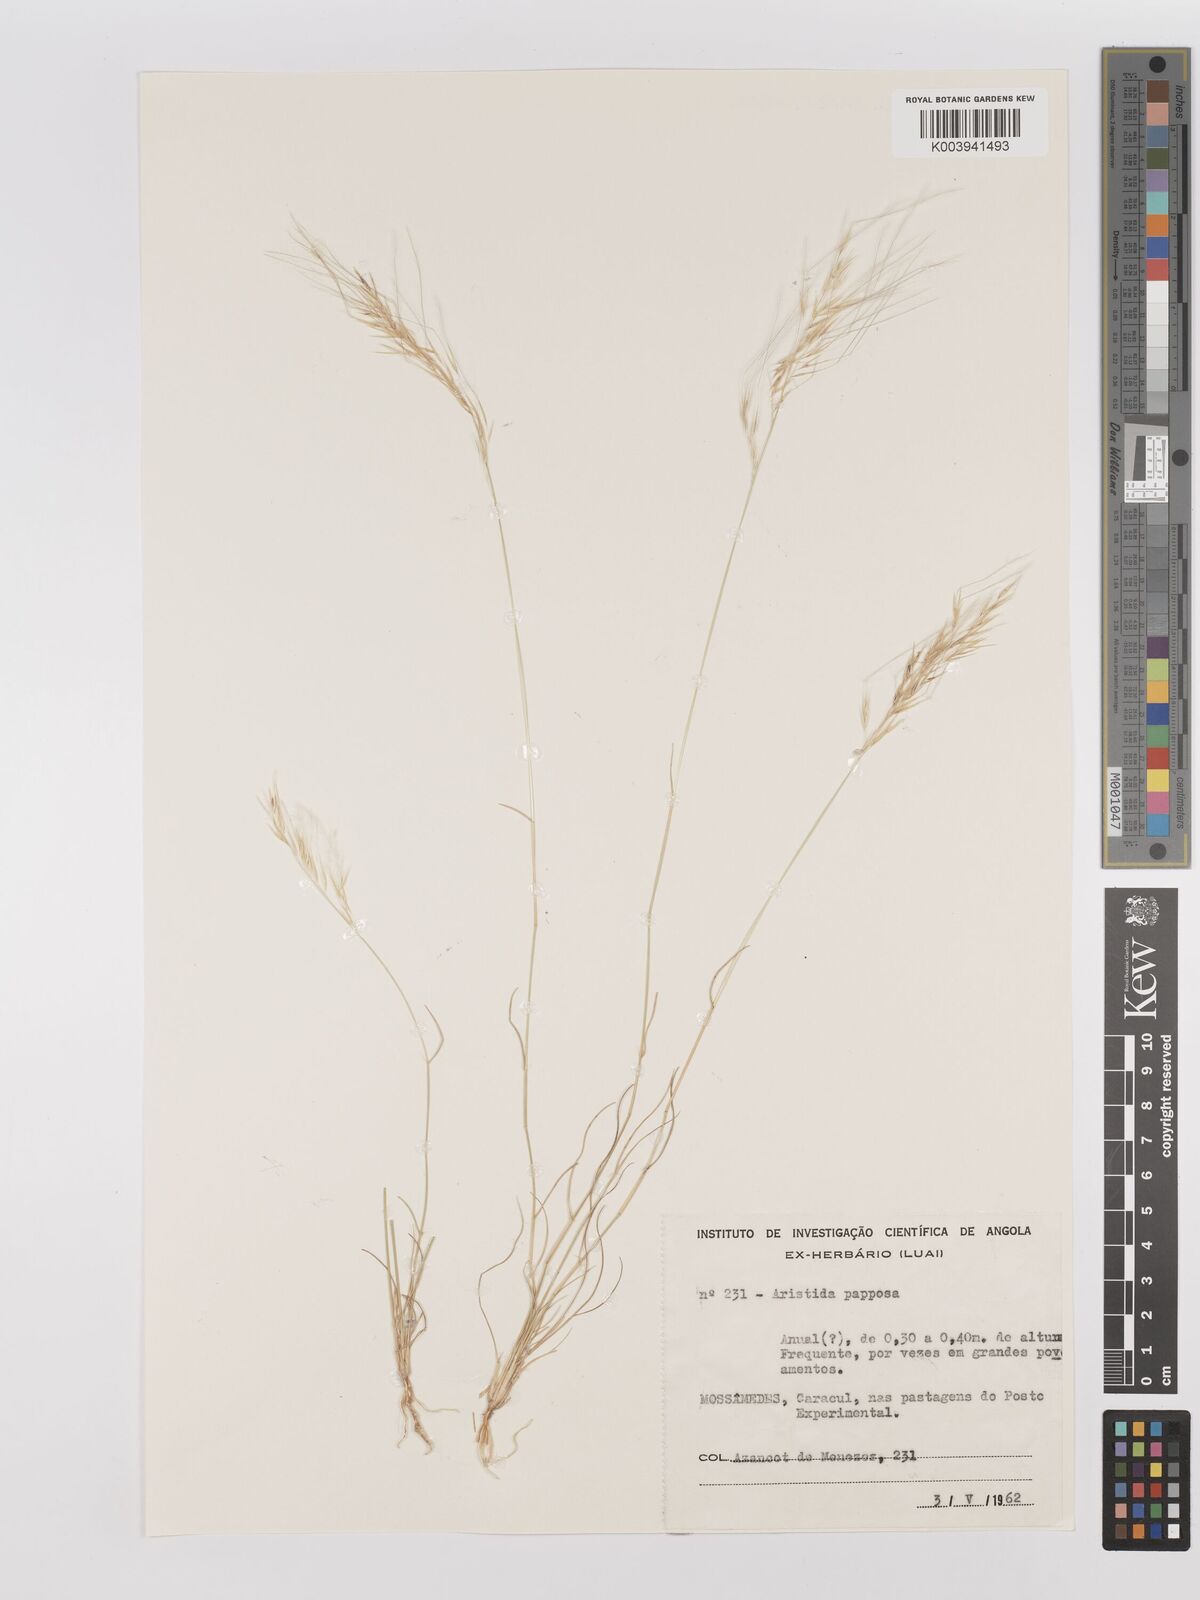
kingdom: Plantae
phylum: Tracheophyta
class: Liliopsida
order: Poales
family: Poaceae
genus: Stipagrostis
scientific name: Stipagrostis uniplumis
